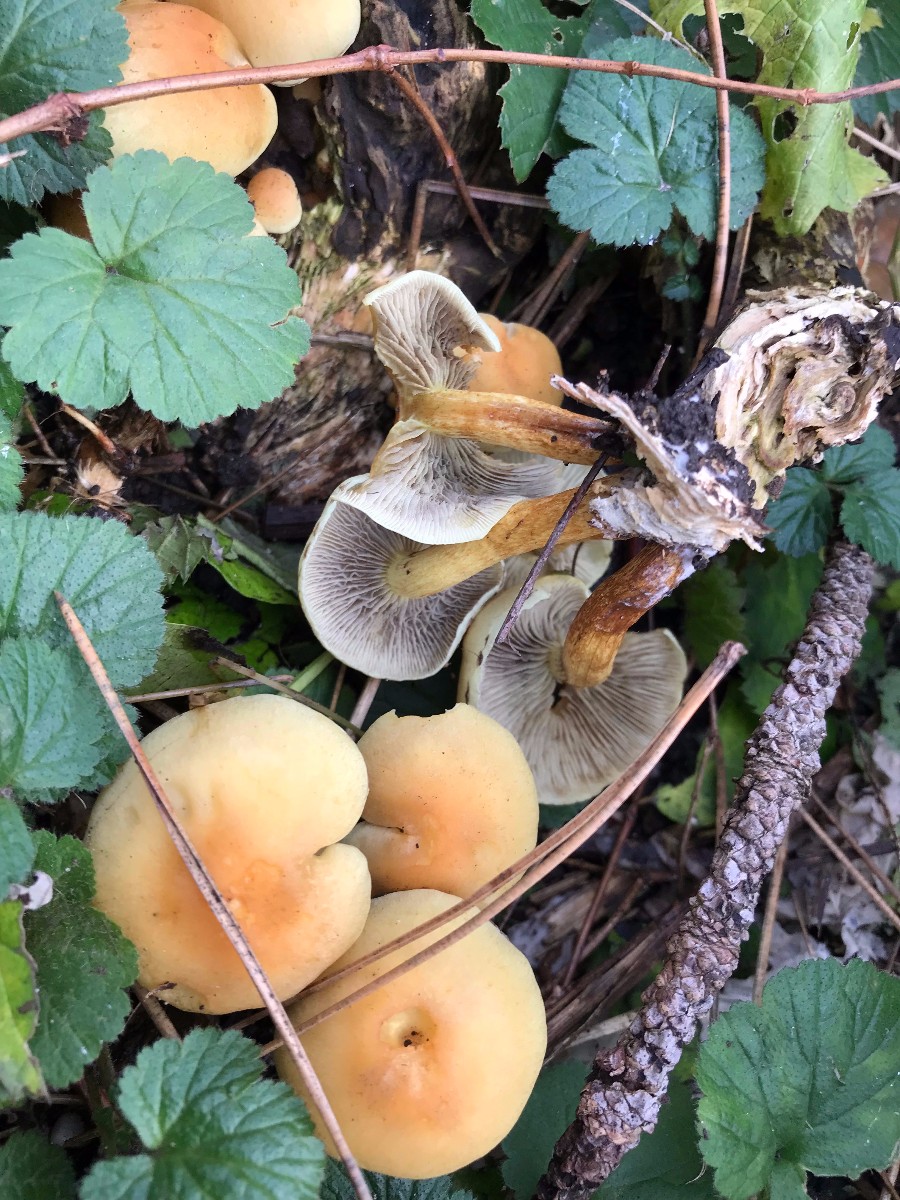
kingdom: Fungi
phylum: Basidiomycota
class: Agaricomycetes
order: Agaricales
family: Strophariaceae
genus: Hypholoma
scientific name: Hypholoma fasciculare
